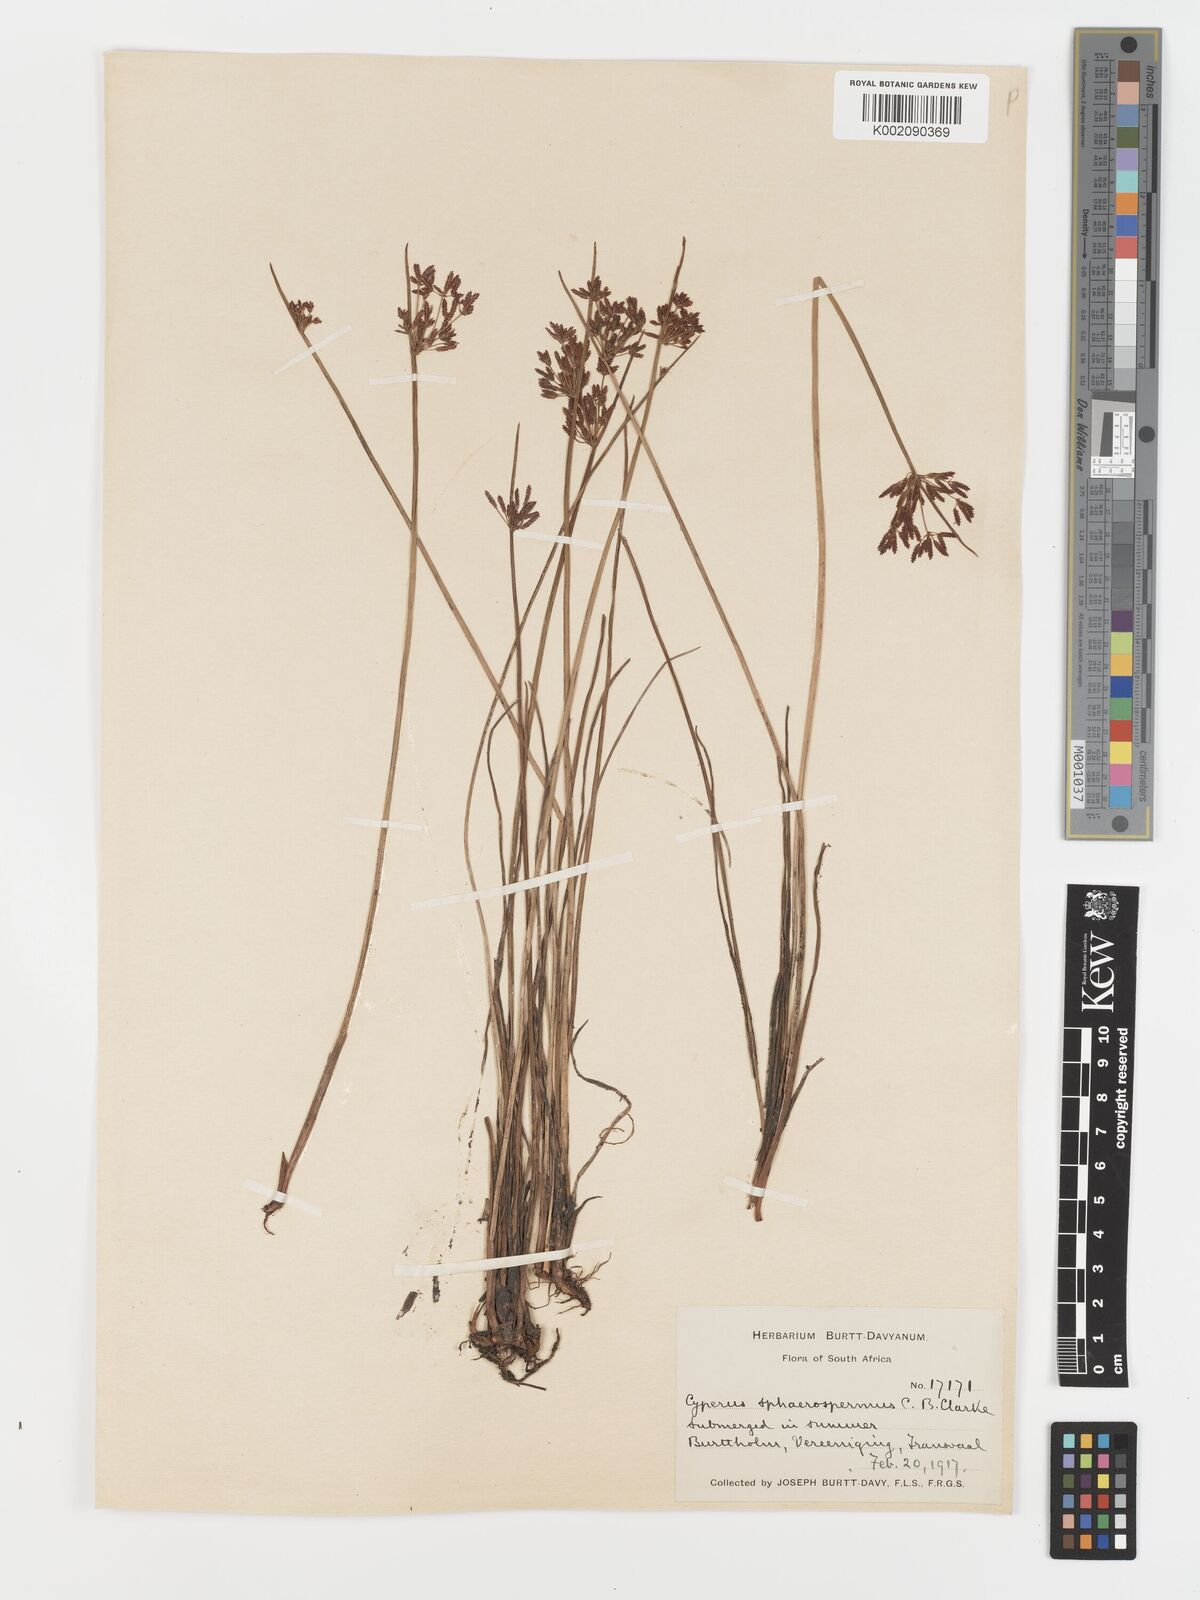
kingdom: Plantae
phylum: Tracheophyta
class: Liliopsida
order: Poales
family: Cyperaceae
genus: Cyperus
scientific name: Cyperus haspan
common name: Haspan flatsedge
